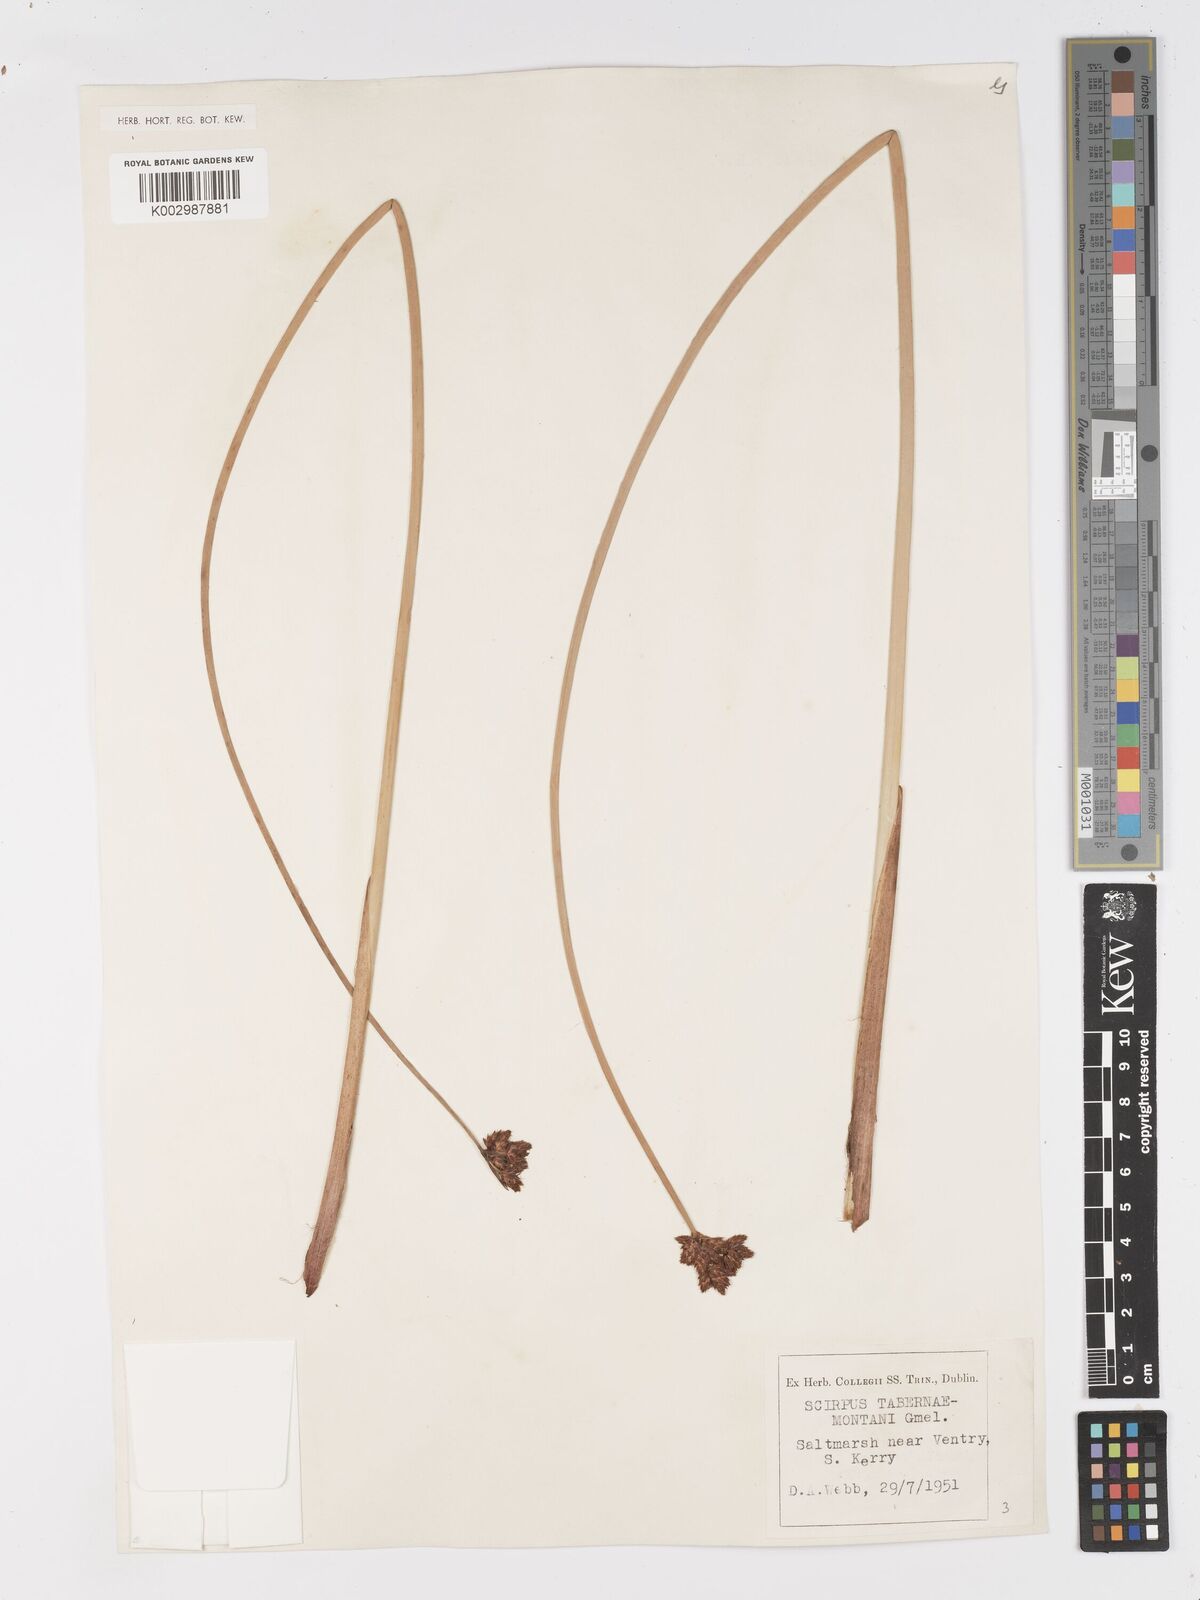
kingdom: Plantae
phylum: Tracheophyta
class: Liliopsida
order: Poales
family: Cyperaceae
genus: Schoenoplectus
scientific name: Schoenoplectus tabernaemontani
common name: Grey club-rush
